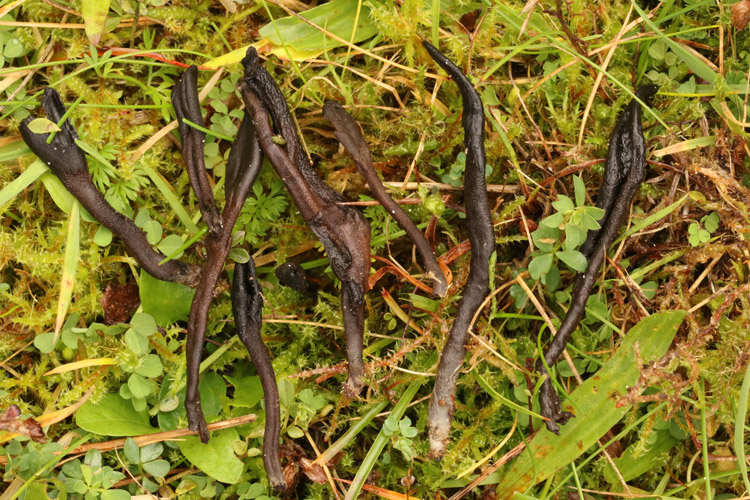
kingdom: Fungi
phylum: Ascomycota
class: Geoglossomycetes
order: Geoglossales
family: Geoglossaceae
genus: Hemileucoglossum
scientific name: Hemileucoglossum elongatum
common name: småsporet jordtunge
